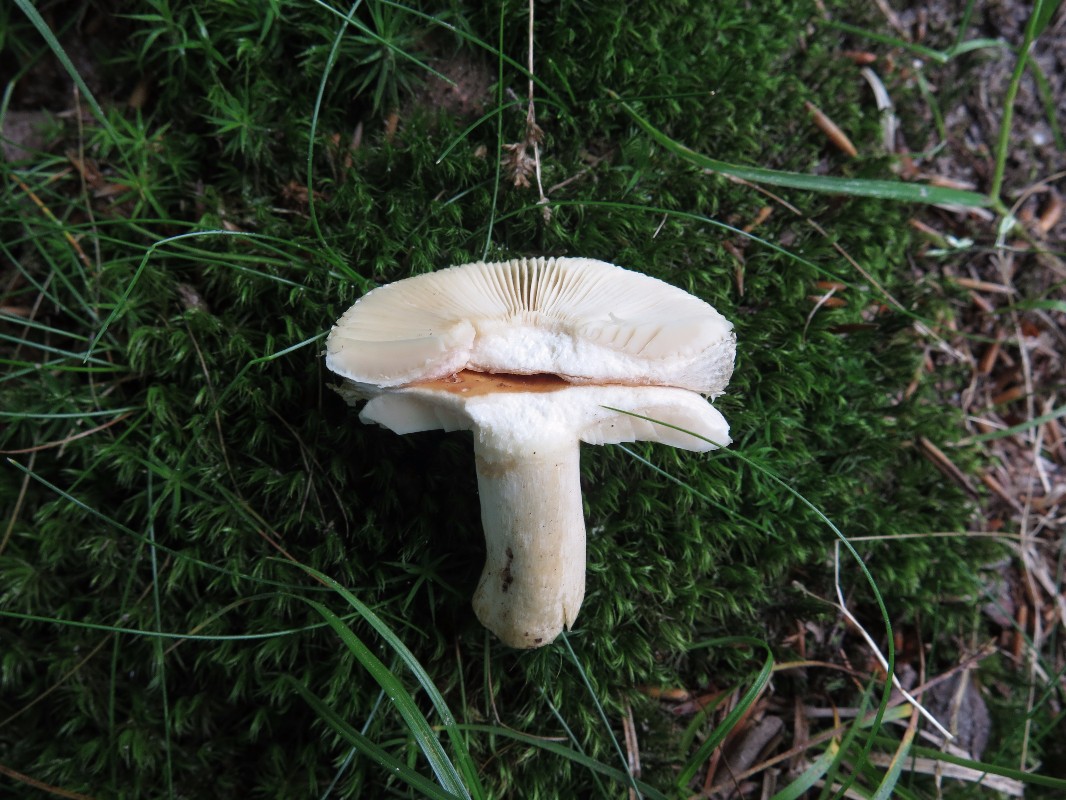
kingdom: Fungi
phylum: Basidiomycota
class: Agaricomycetes
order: Russulales
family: Russulaceae
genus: Russula
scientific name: Russula fellea
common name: galde-skørhat
